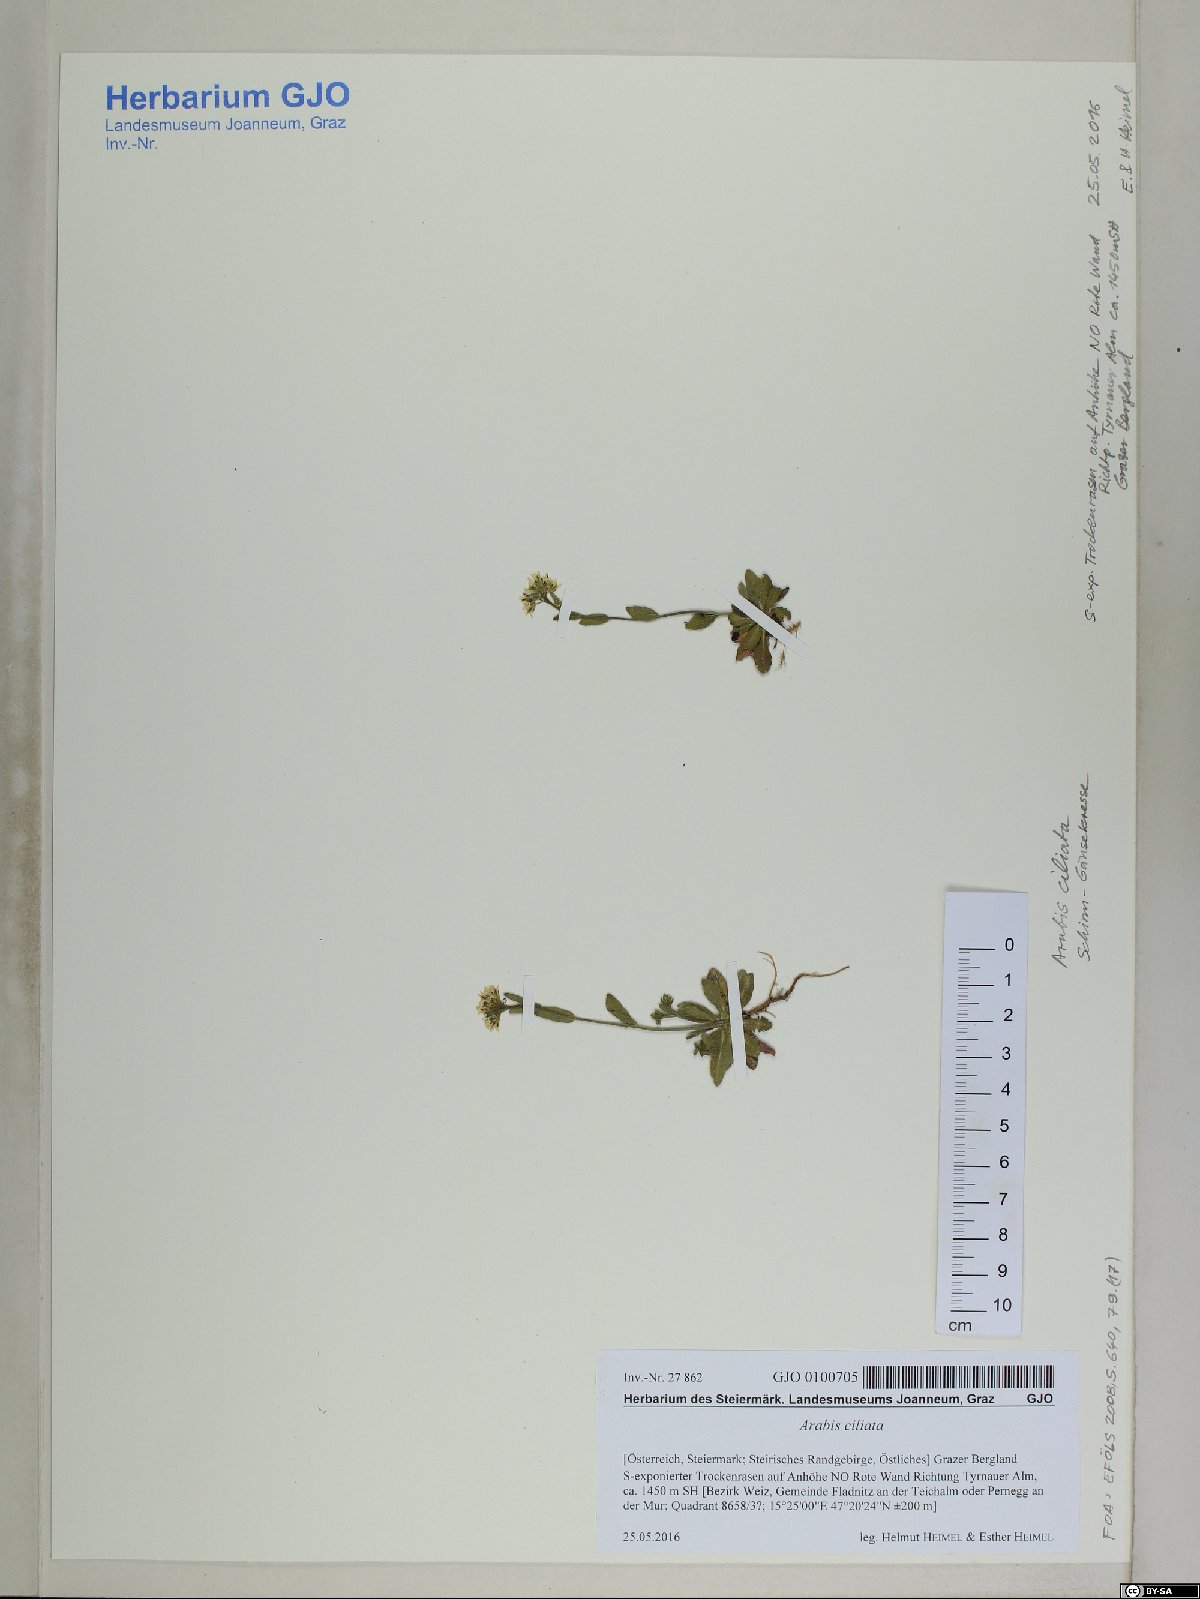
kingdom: Plantae
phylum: Tracheophyta
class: Magnoliopsida
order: Brassicales
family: Brassicaceae
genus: Arabis
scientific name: Arabis ciliata
